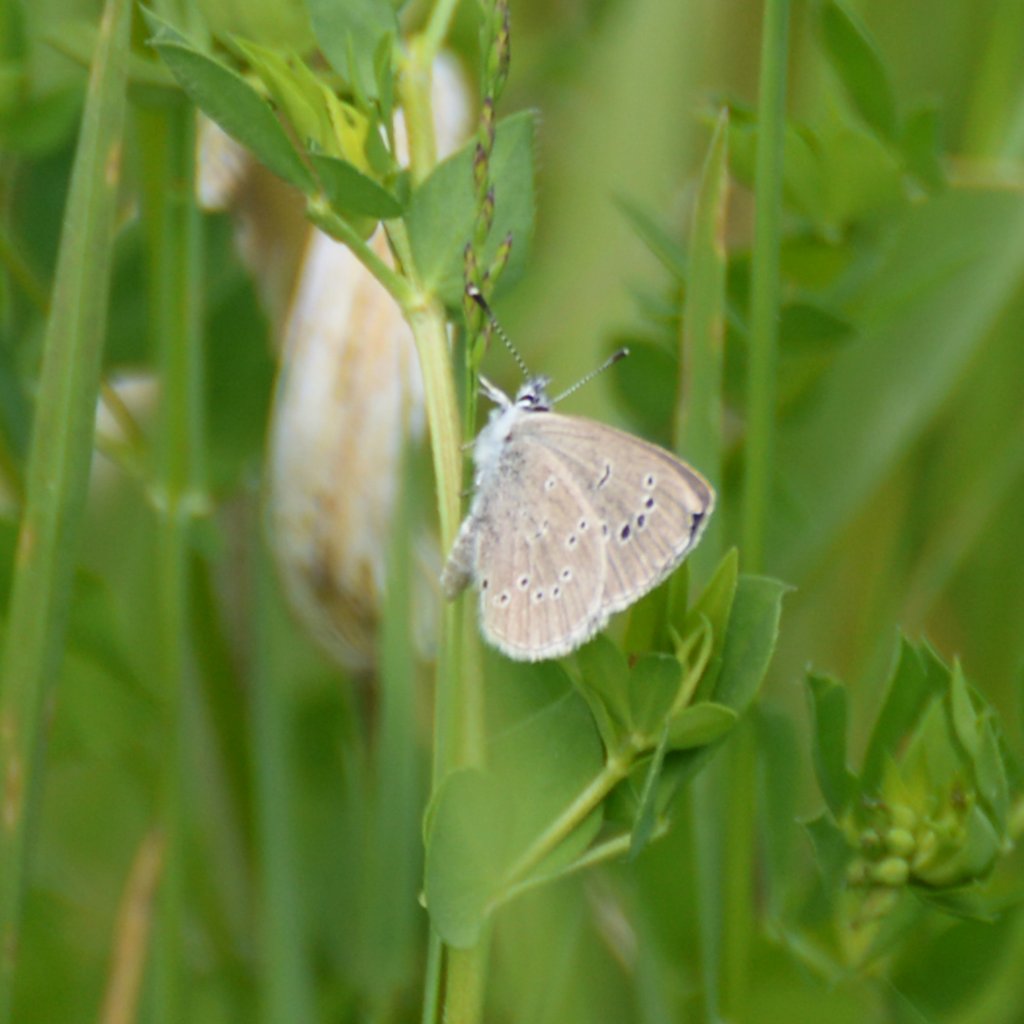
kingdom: Animalia
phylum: Arthropoda
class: Insecta
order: Lepidoptera
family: Lycaenidae
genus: Glaucopsyche
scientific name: Glaucopsyche lygdamus
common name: Silvery Blue
